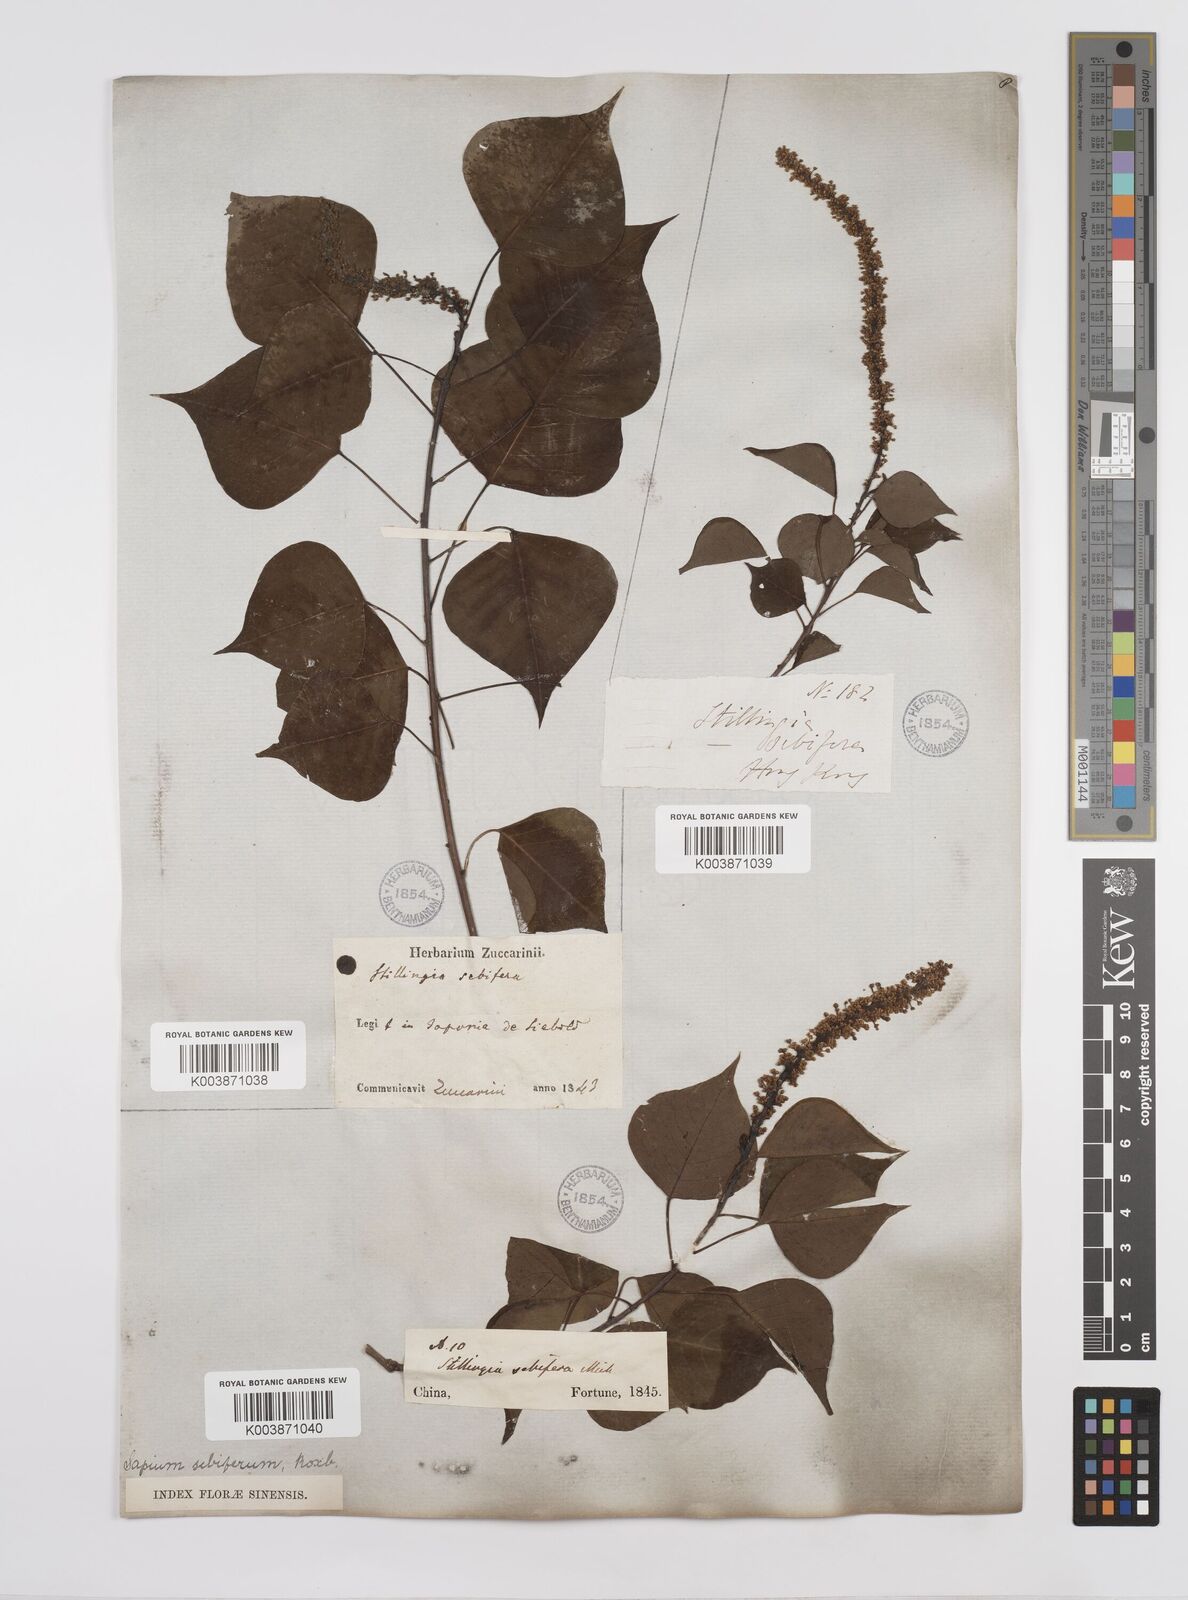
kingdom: Plantae
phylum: Tracheophyta
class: Magnoliopsida
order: Malpighiales
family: Euphorbiaceae
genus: Triadica
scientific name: Triadica sebifera
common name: Chinese tallow
